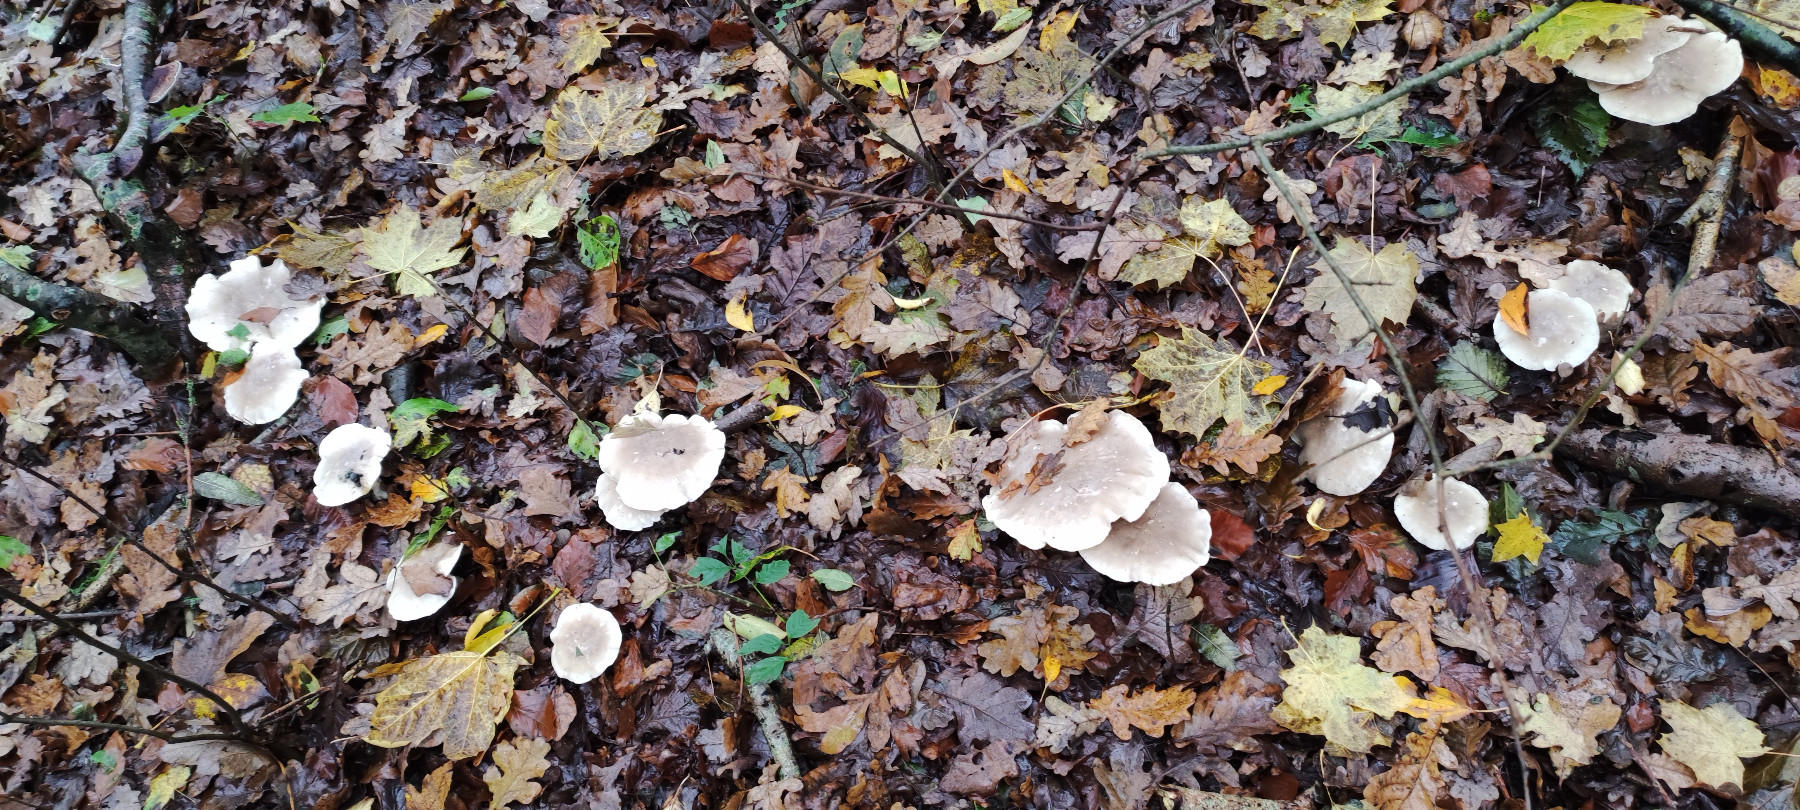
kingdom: Fungi
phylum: Basidiomycota
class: Agaricomycetes
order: Agaricales
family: Tricholomataceae
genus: Clitocybe
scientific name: Clitocybe nebularis
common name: tåge-tragthat
